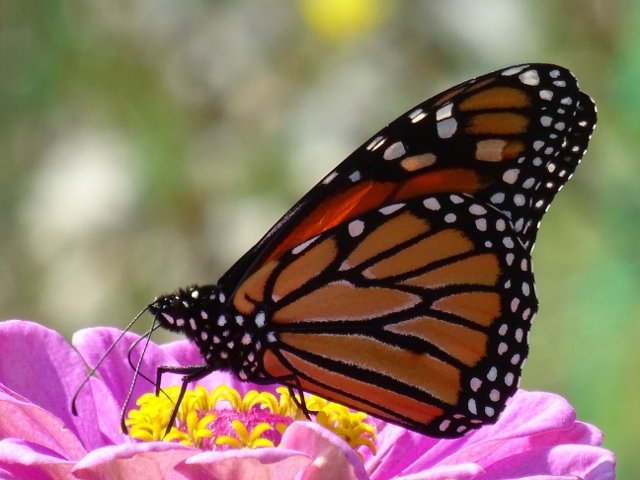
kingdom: Animalia
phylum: Arthropoda
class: Insecta
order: Lepidoptera
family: Nymphalidae
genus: Danaus
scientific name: Danaus plexippus
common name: Monarch
